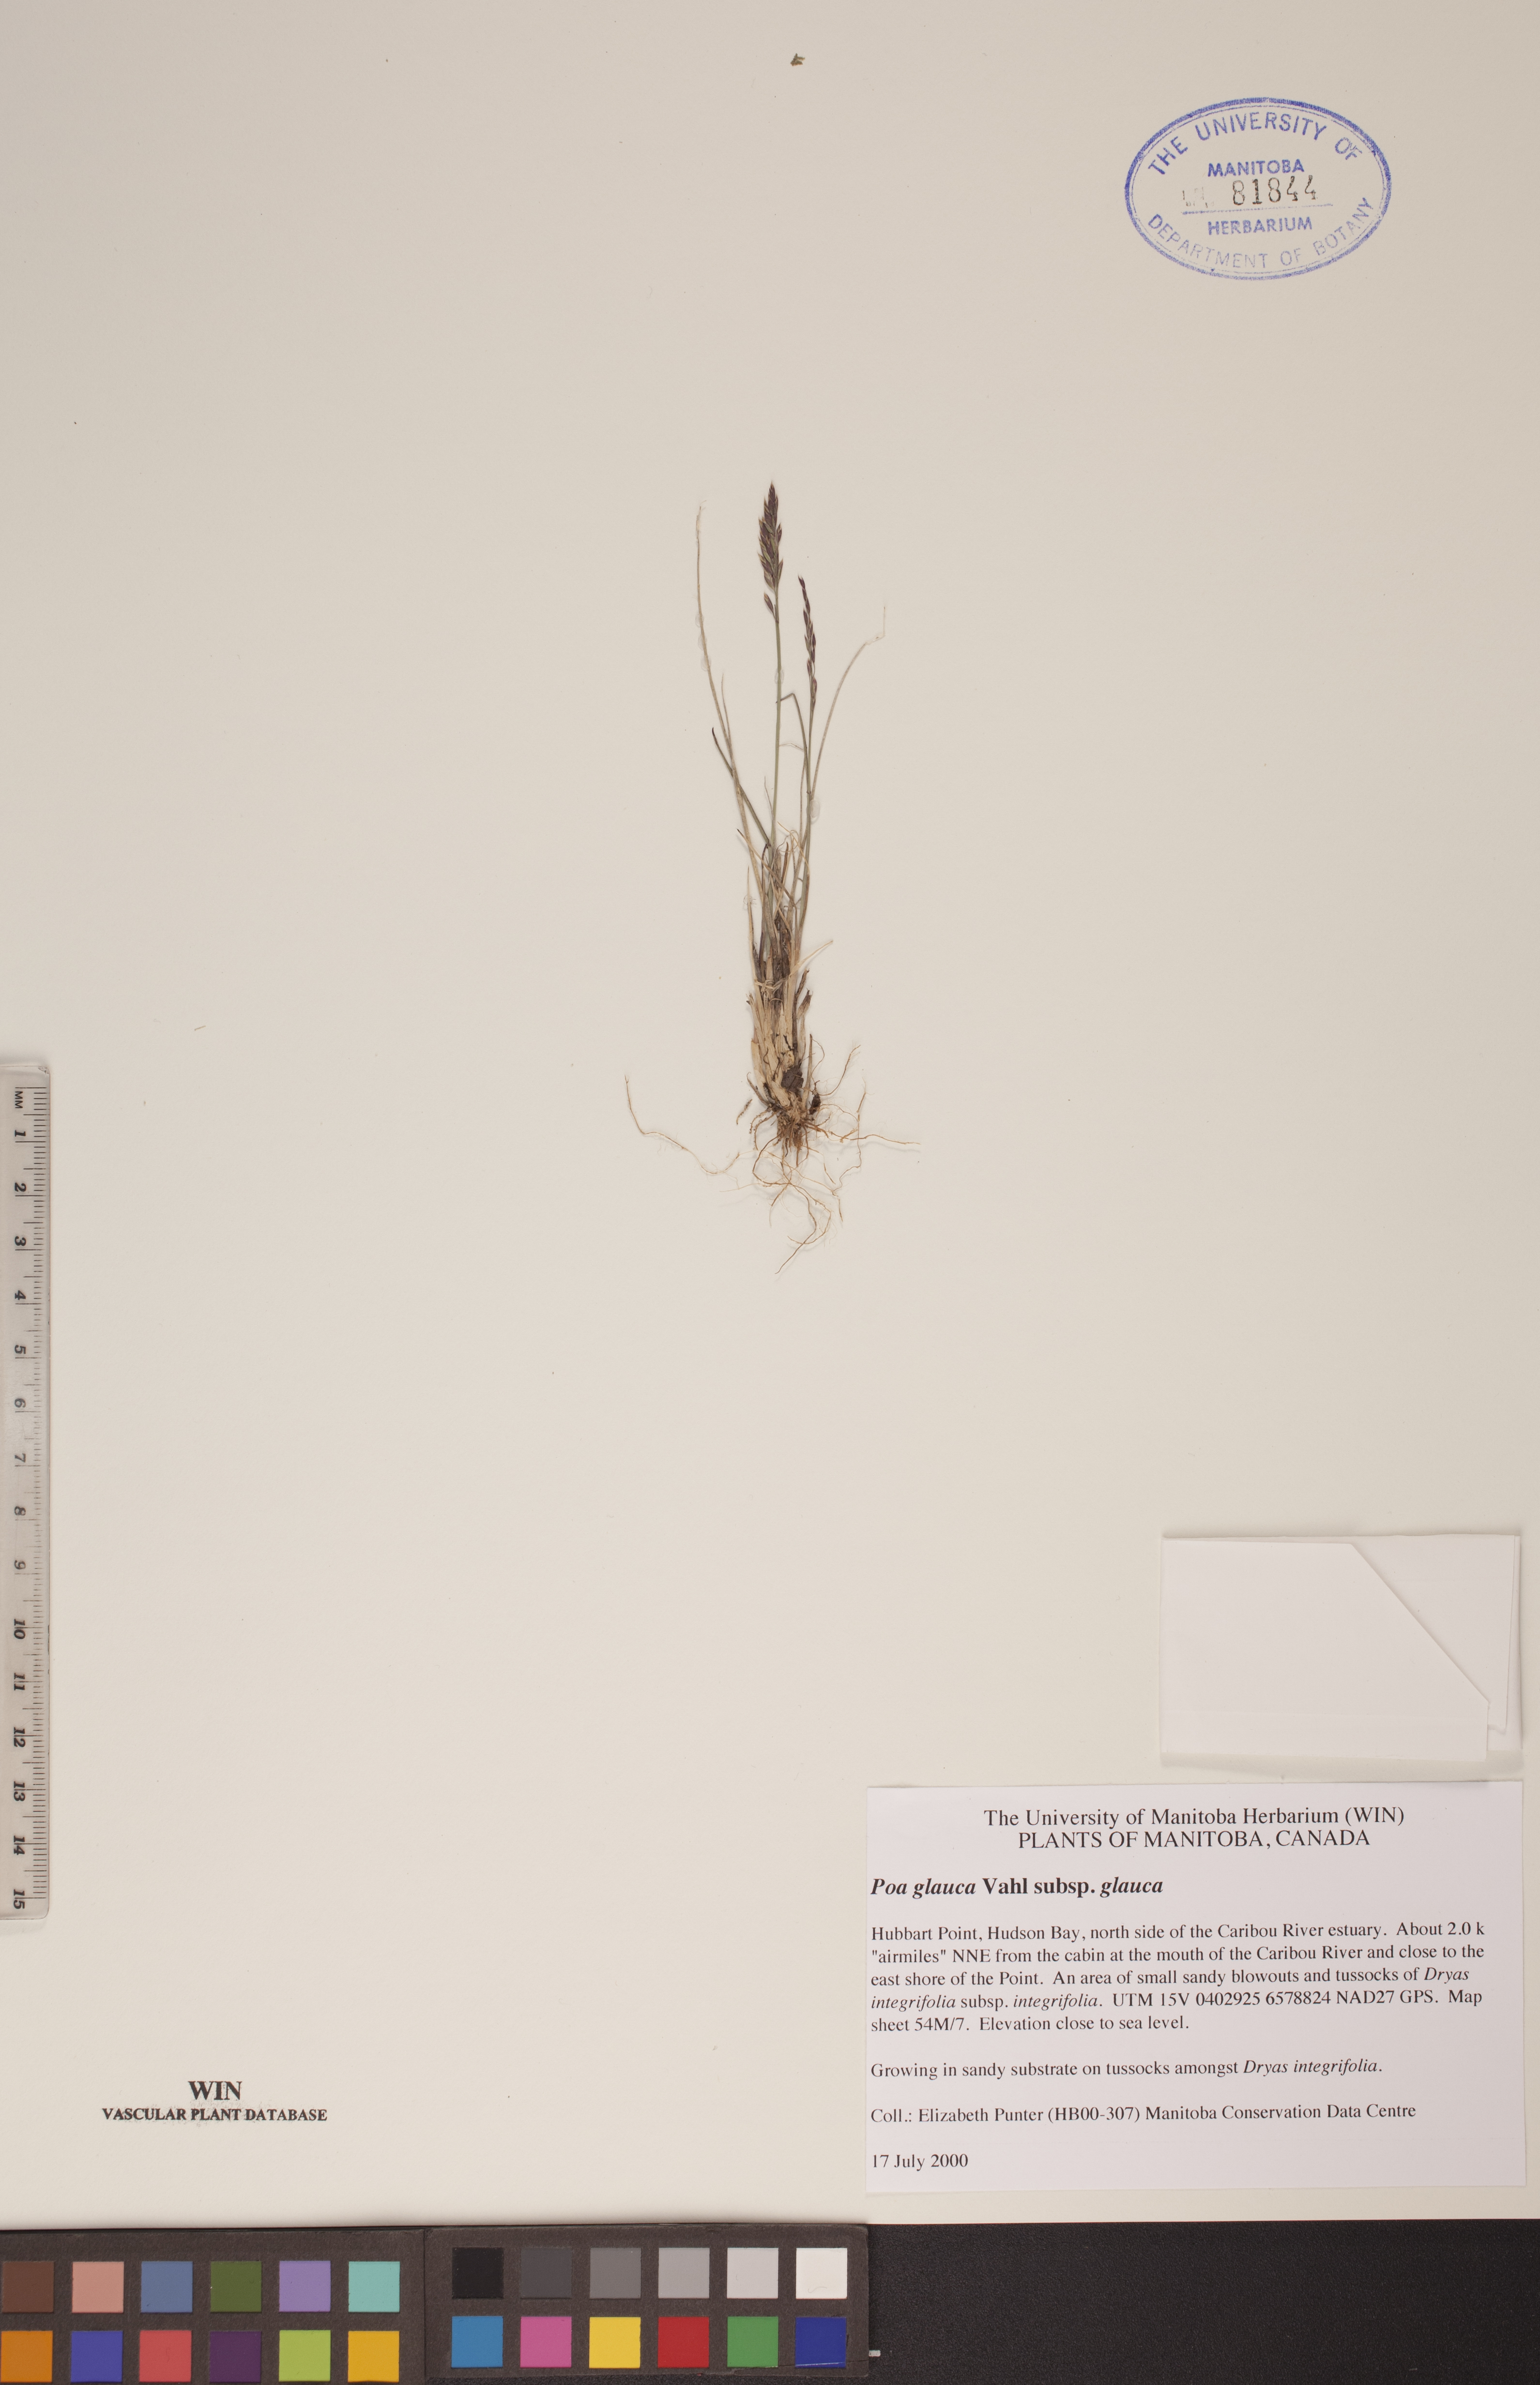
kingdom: Plantae
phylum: Tracheophyta
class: Liliopsida
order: Poales
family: Poaceae
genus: Poa
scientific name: Poa glauca
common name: Glaucous bluegrass
